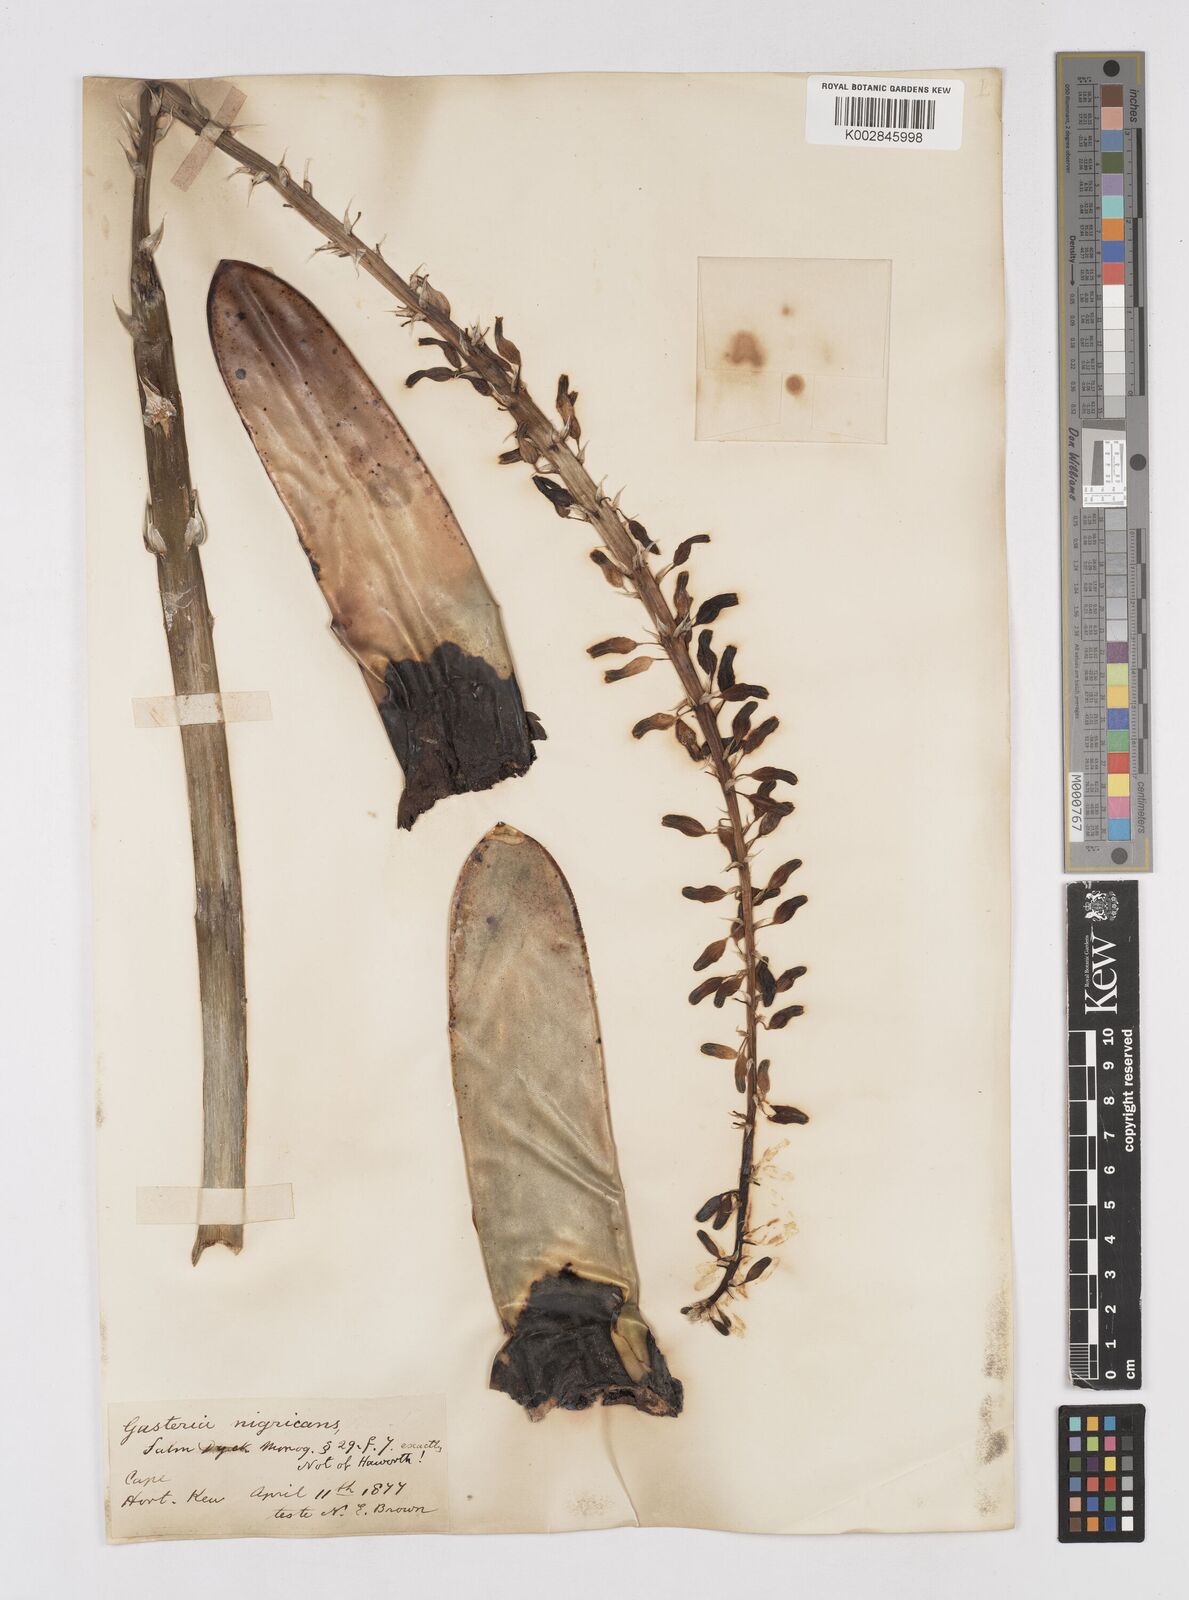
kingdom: Plantae
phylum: Tracheophyta
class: Liliopsida
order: Asparagales
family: Asphodelaceae
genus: Gasteria
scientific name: Gasteria disticha
